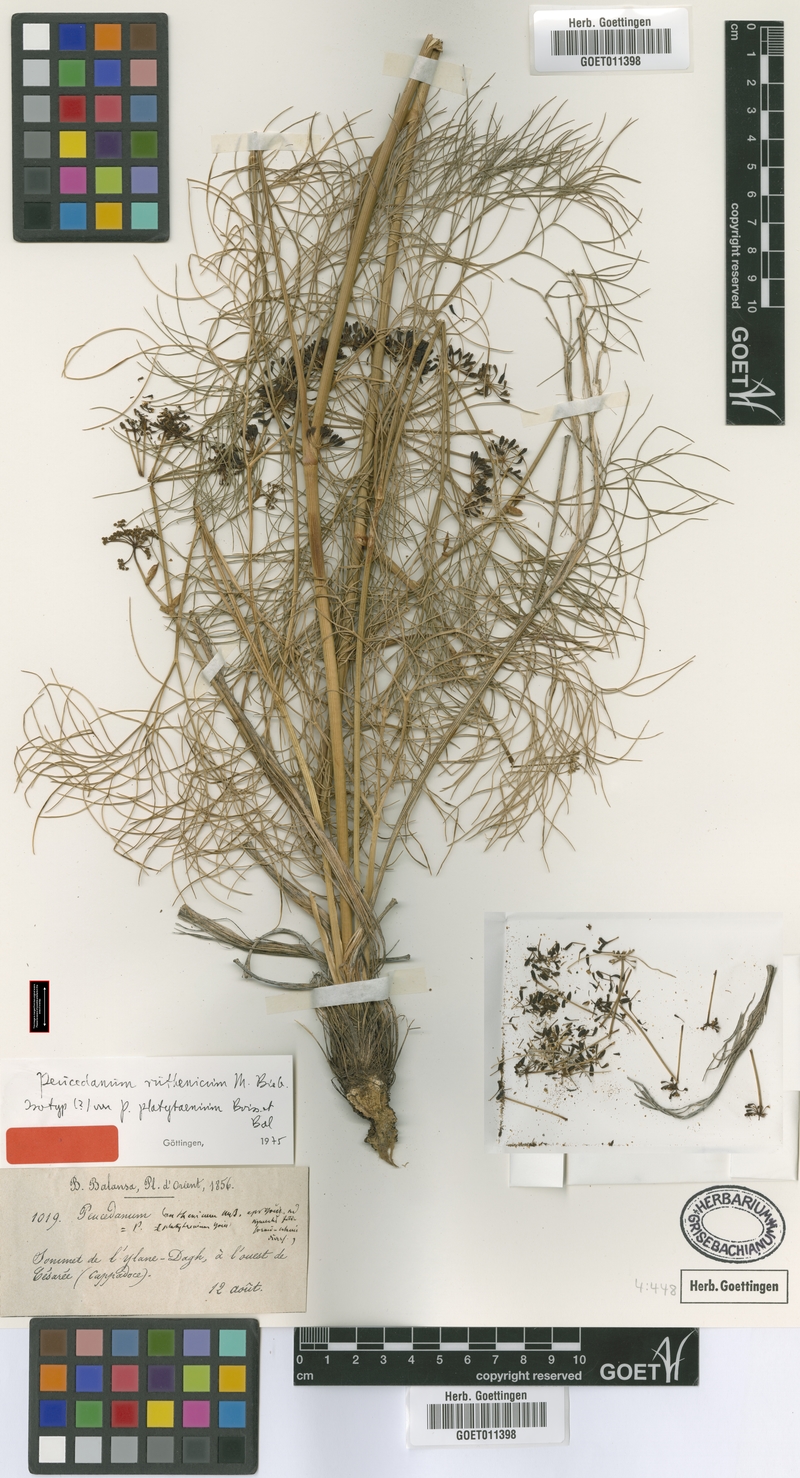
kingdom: Plantae
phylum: Tracheophyta
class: Magnoliopsida
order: Apiales
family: Apiaceae
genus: Peucedanum
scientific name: Peucedanum longifolium
